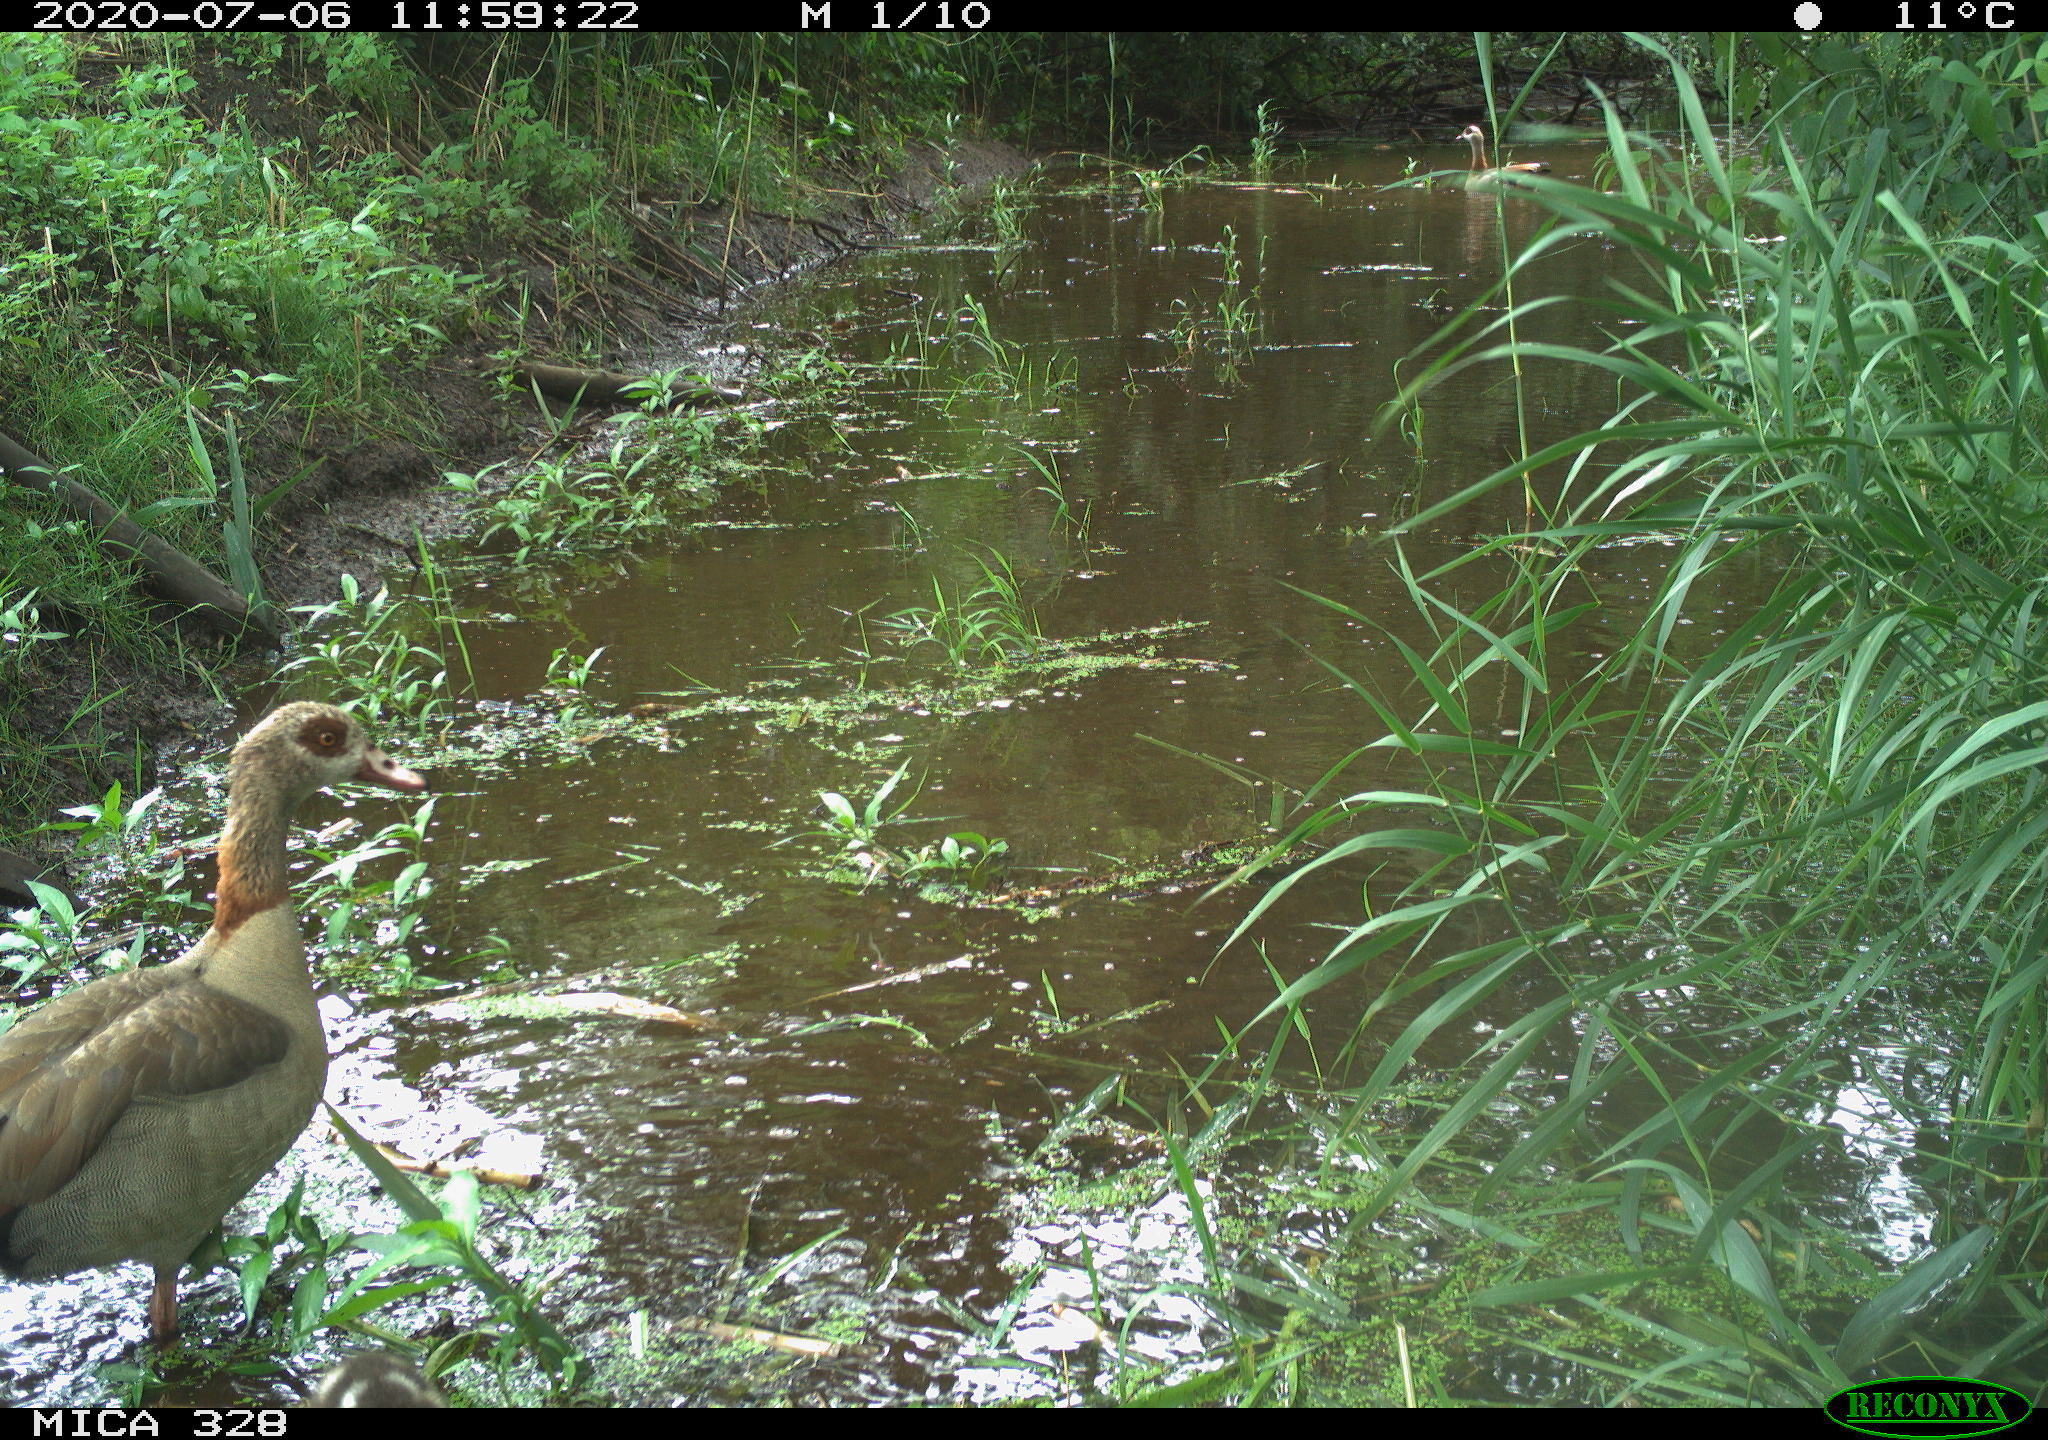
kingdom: Animalia
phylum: Chordata
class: Aves
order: Anseriformes
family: Anatidae
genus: Alopochen
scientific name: Alopochen aegyptiaca
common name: Egyptian goose
